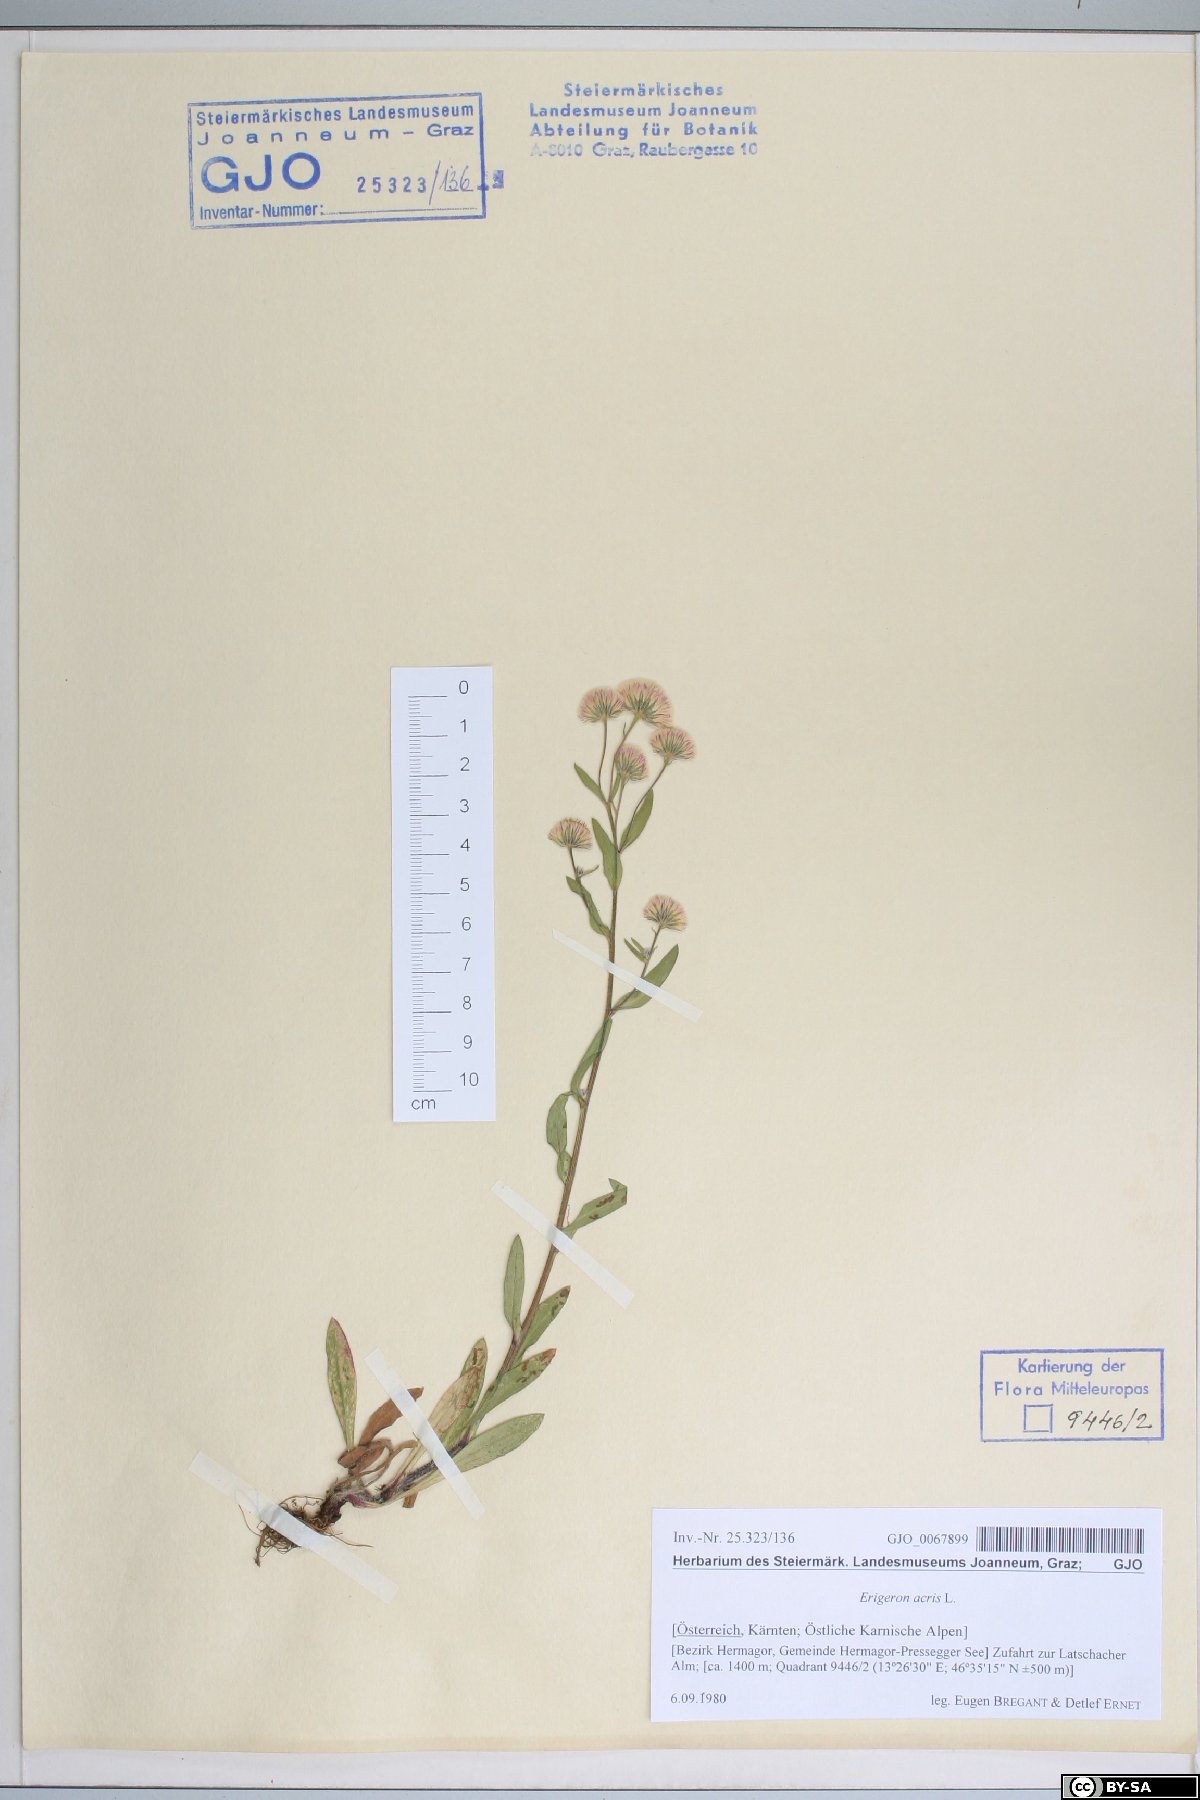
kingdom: Plantae
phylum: Tracheophyta
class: Magnoliopsida
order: Asterales
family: Asteraceae
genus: Erigeron
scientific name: Erigeron acris
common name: Blue fleabane
